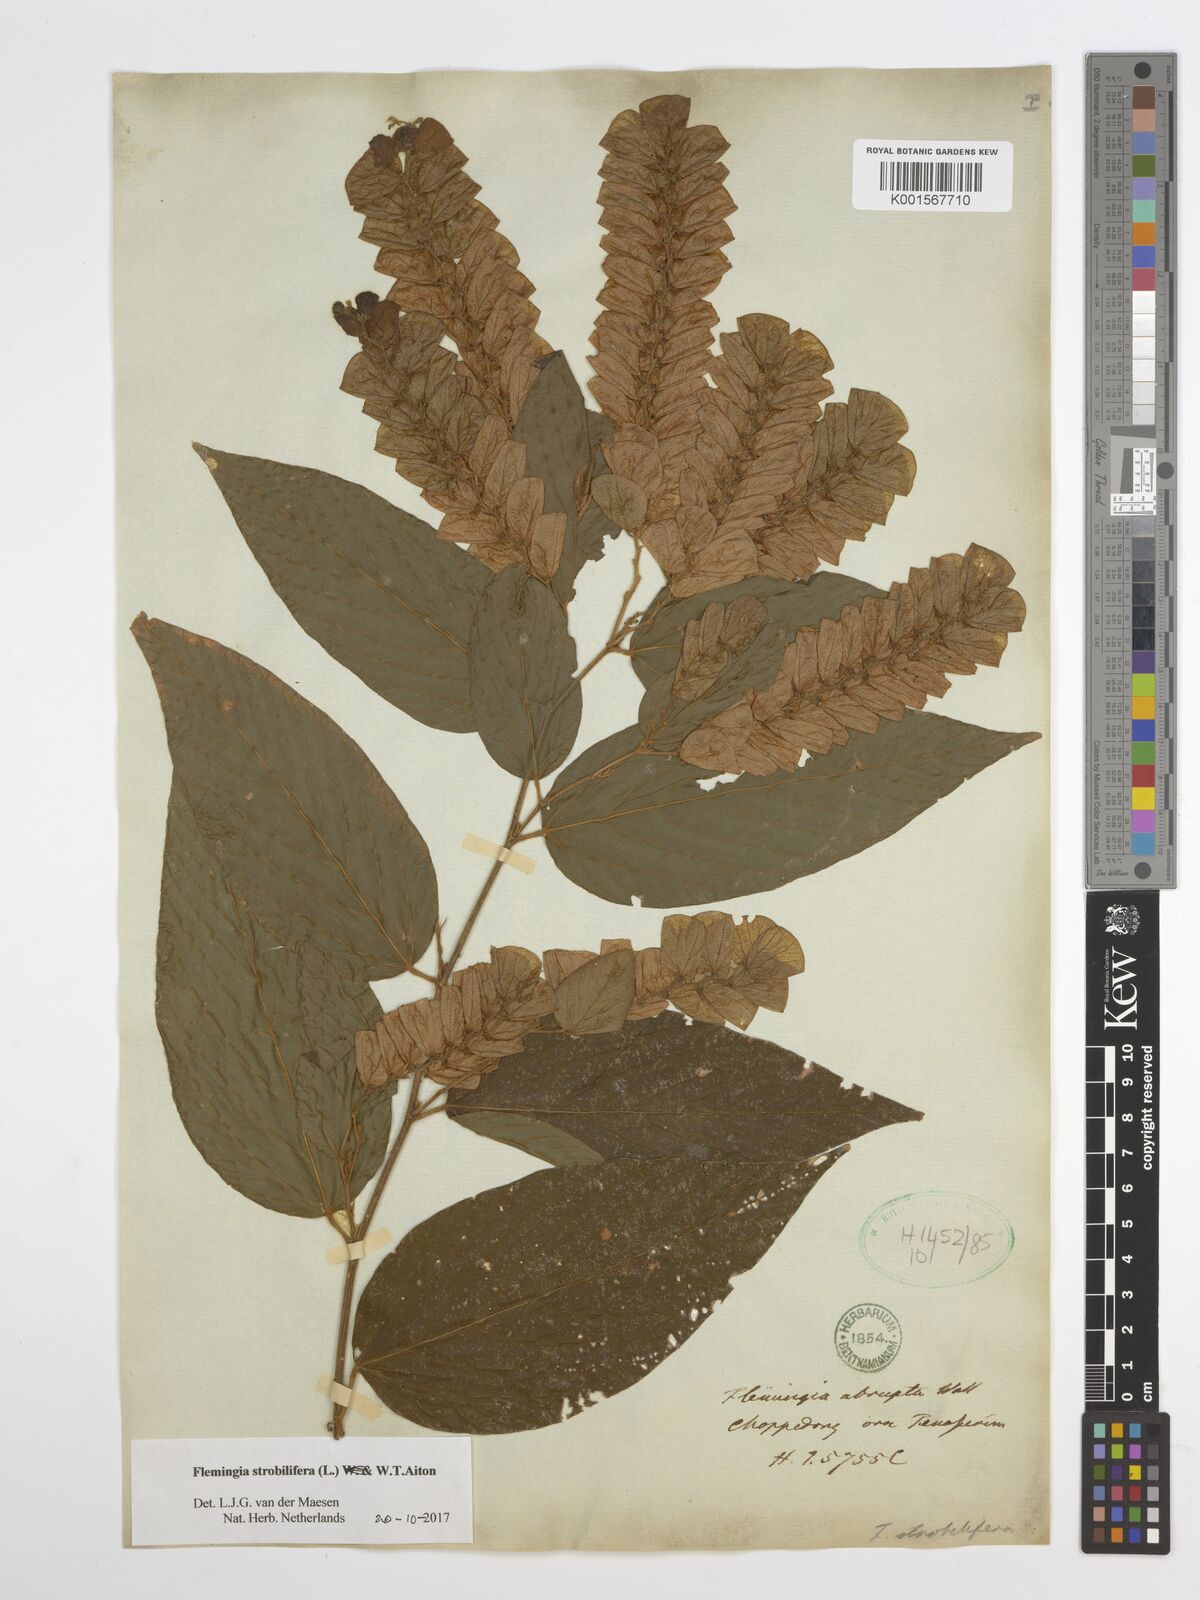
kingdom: Plantae
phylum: Tracheophyta
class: Magnoliopsida
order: Fabales
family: Fabaceae
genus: Flemingia
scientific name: Flemingia strobilifera
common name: Wild hops
